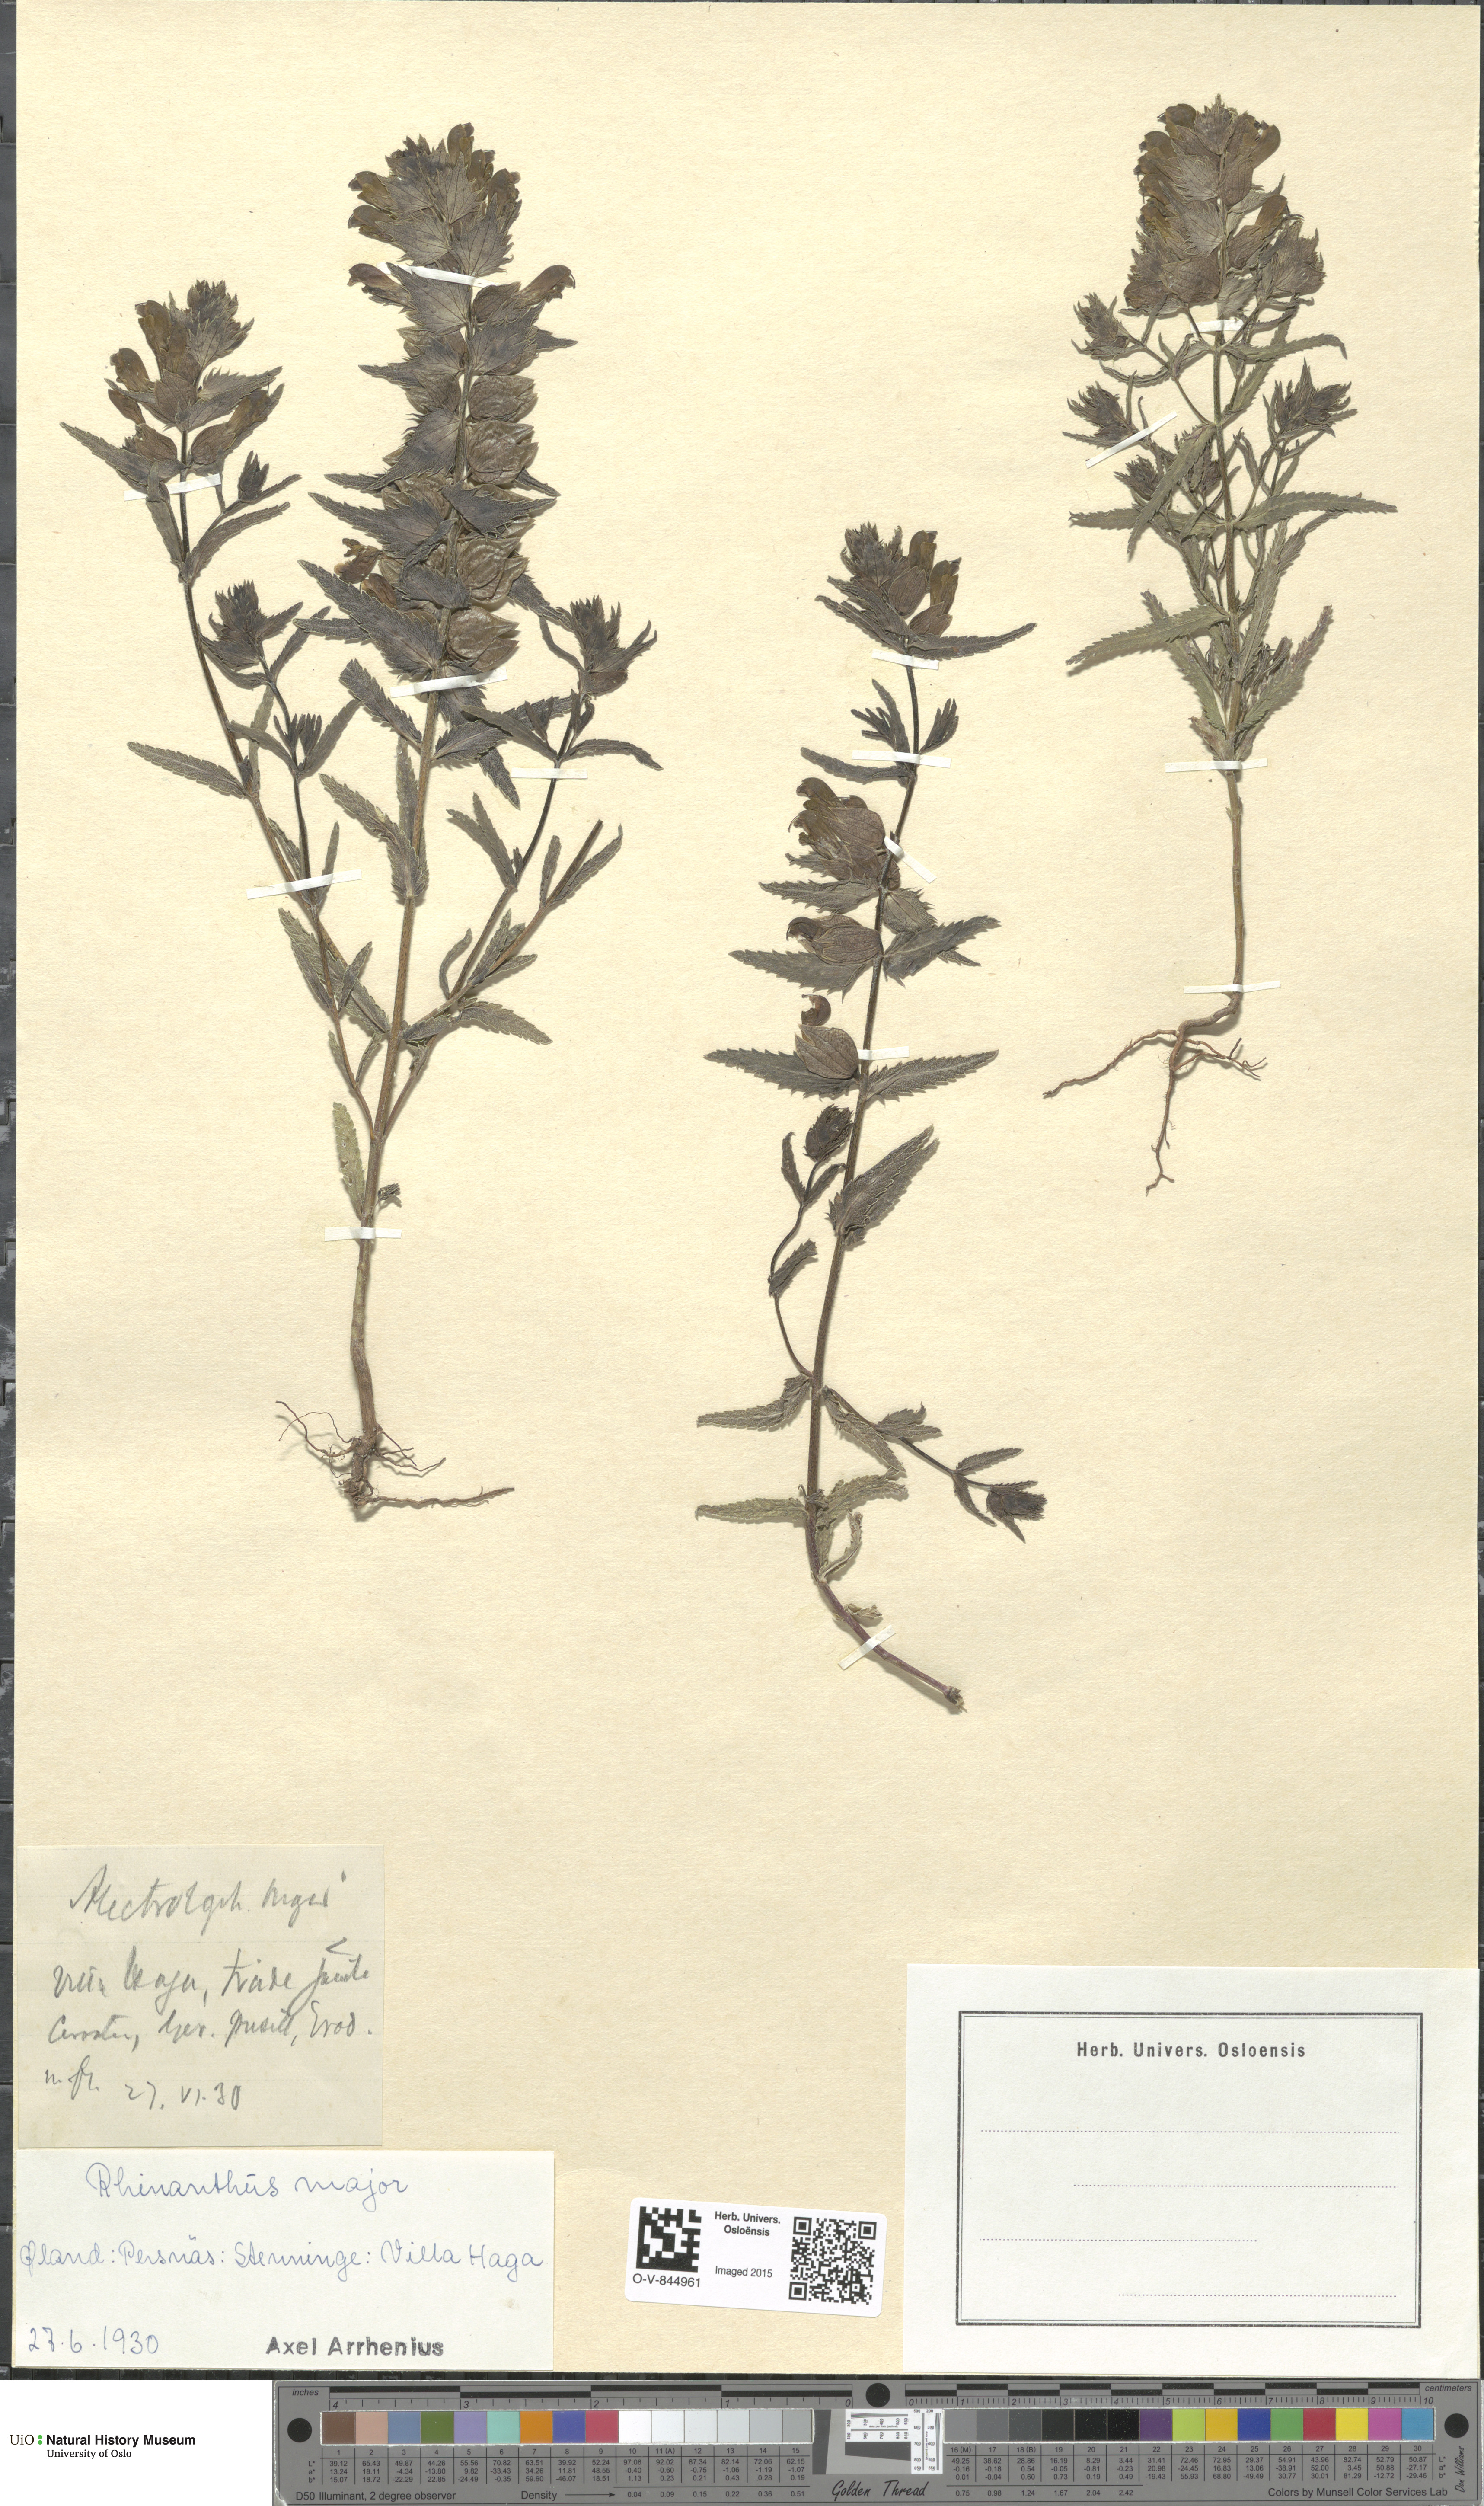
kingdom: Plantae
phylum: Tracheophyta
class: Magnoliopsida
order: Lamiales
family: Orobanchaceae
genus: Rhinanthus
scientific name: Rhinanthus serotinus
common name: Late-flowering yellow rattle
